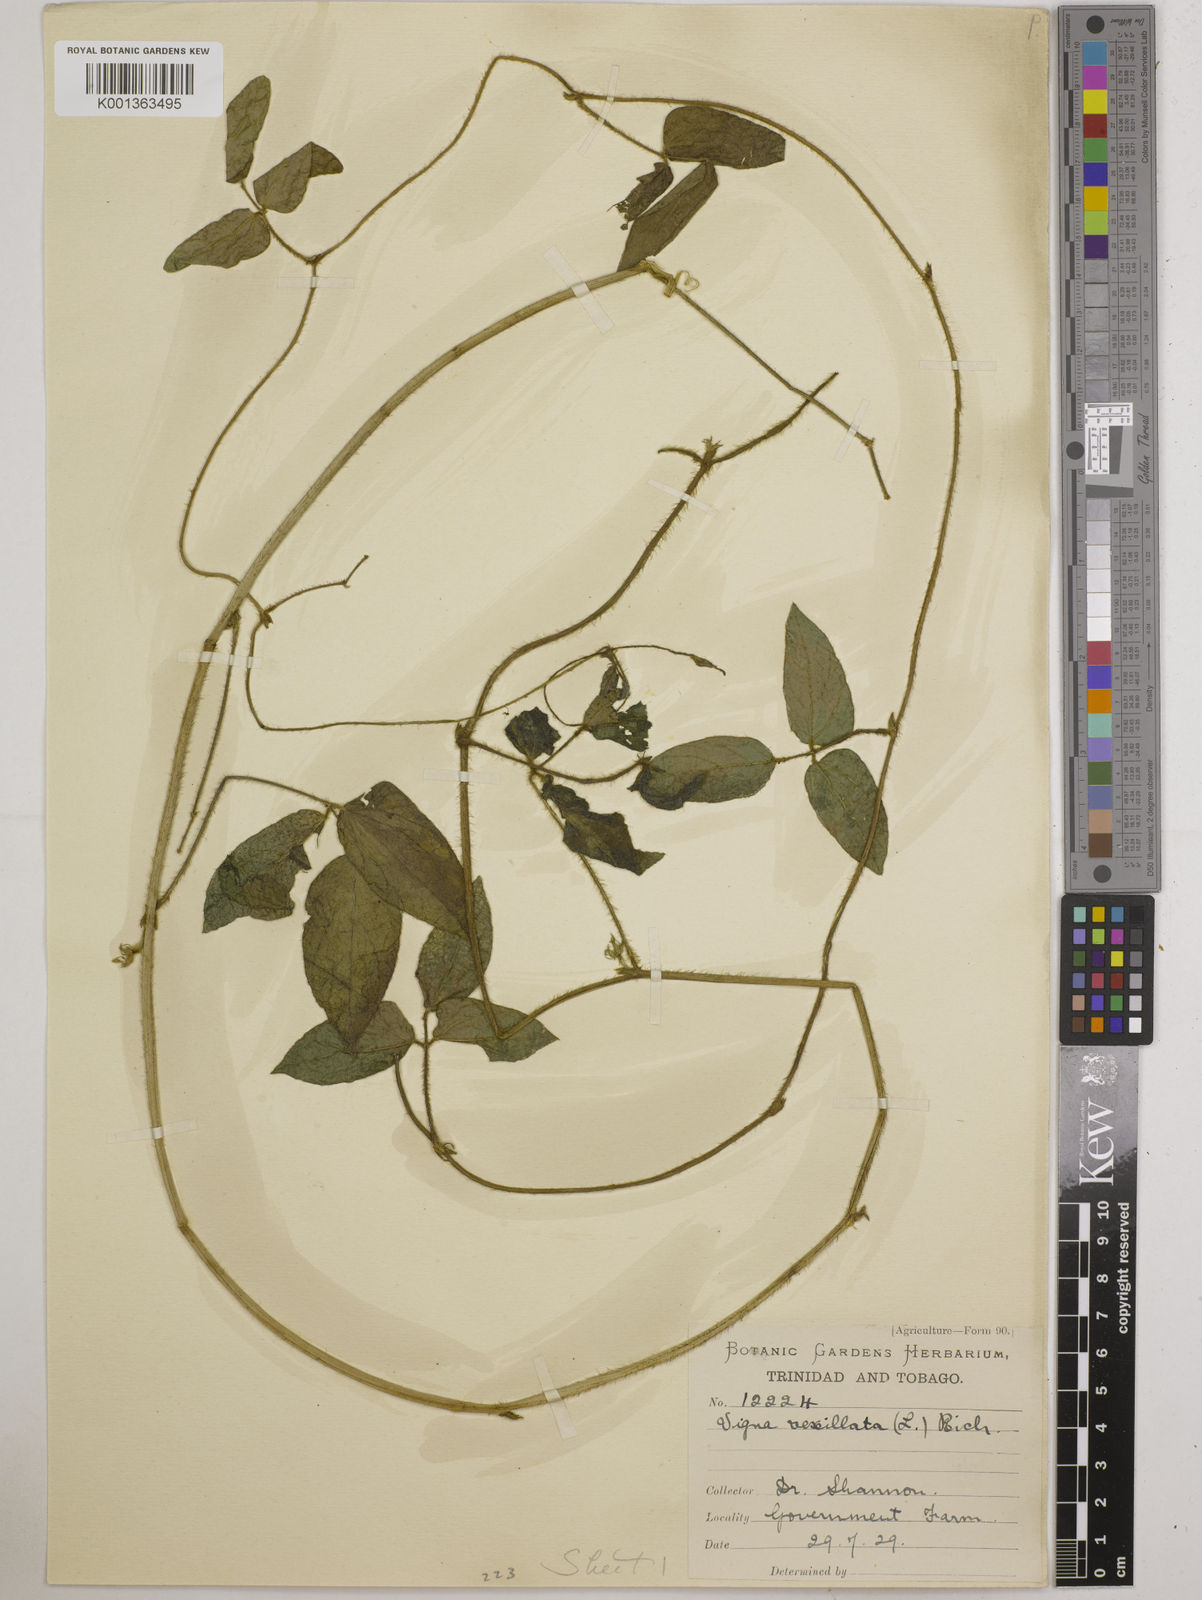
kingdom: Plantae
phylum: Tracheophyta
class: Magnoliopsida
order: Fabales
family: Fabaceae
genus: Vigna
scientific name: Vigna vexillata
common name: Zombi pea
